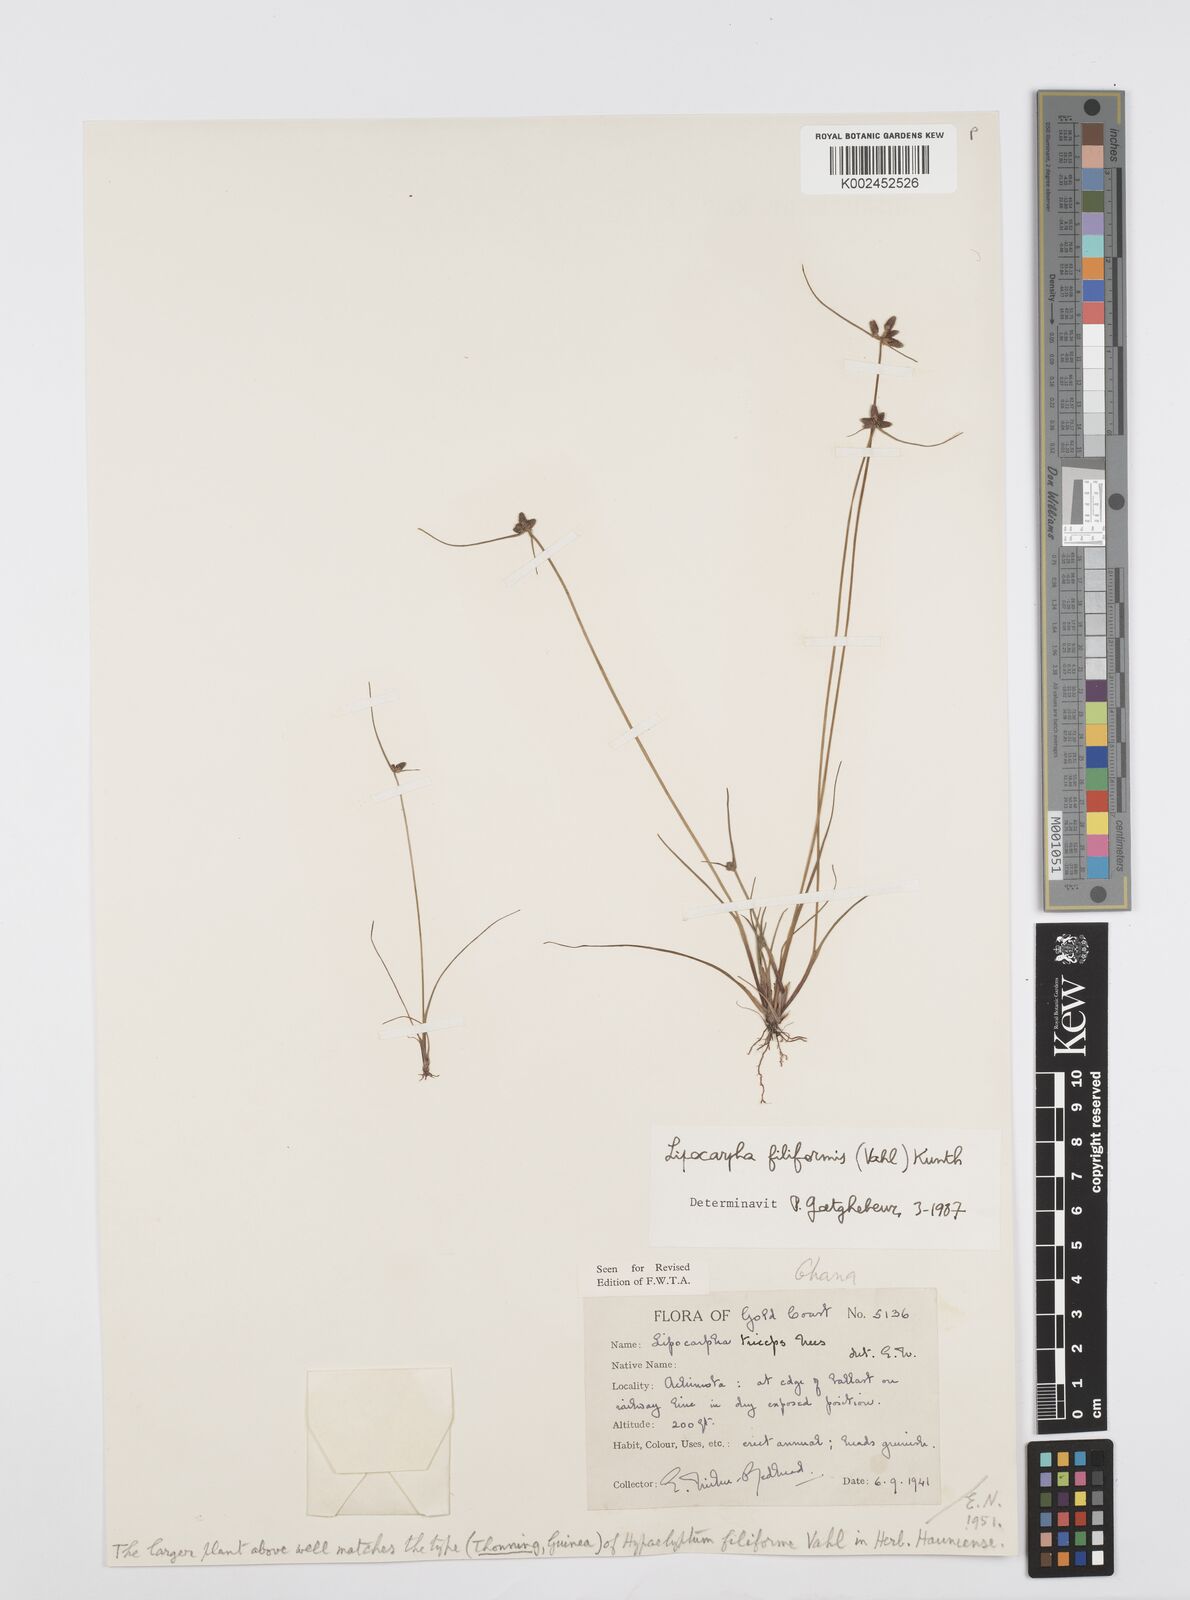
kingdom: Plantae
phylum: Tracheophyta
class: Liliopsida
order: Poales
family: Cyperaceae
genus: Cyperus
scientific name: Cyperus filiformis
